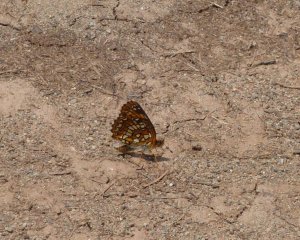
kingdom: Animalia
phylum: Arthropoda
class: Insecta
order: Lepidoptera
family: Nymphalidae
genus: Chlosyne
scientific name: Chlosyne harrisii
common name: Harris's Checkerspot
